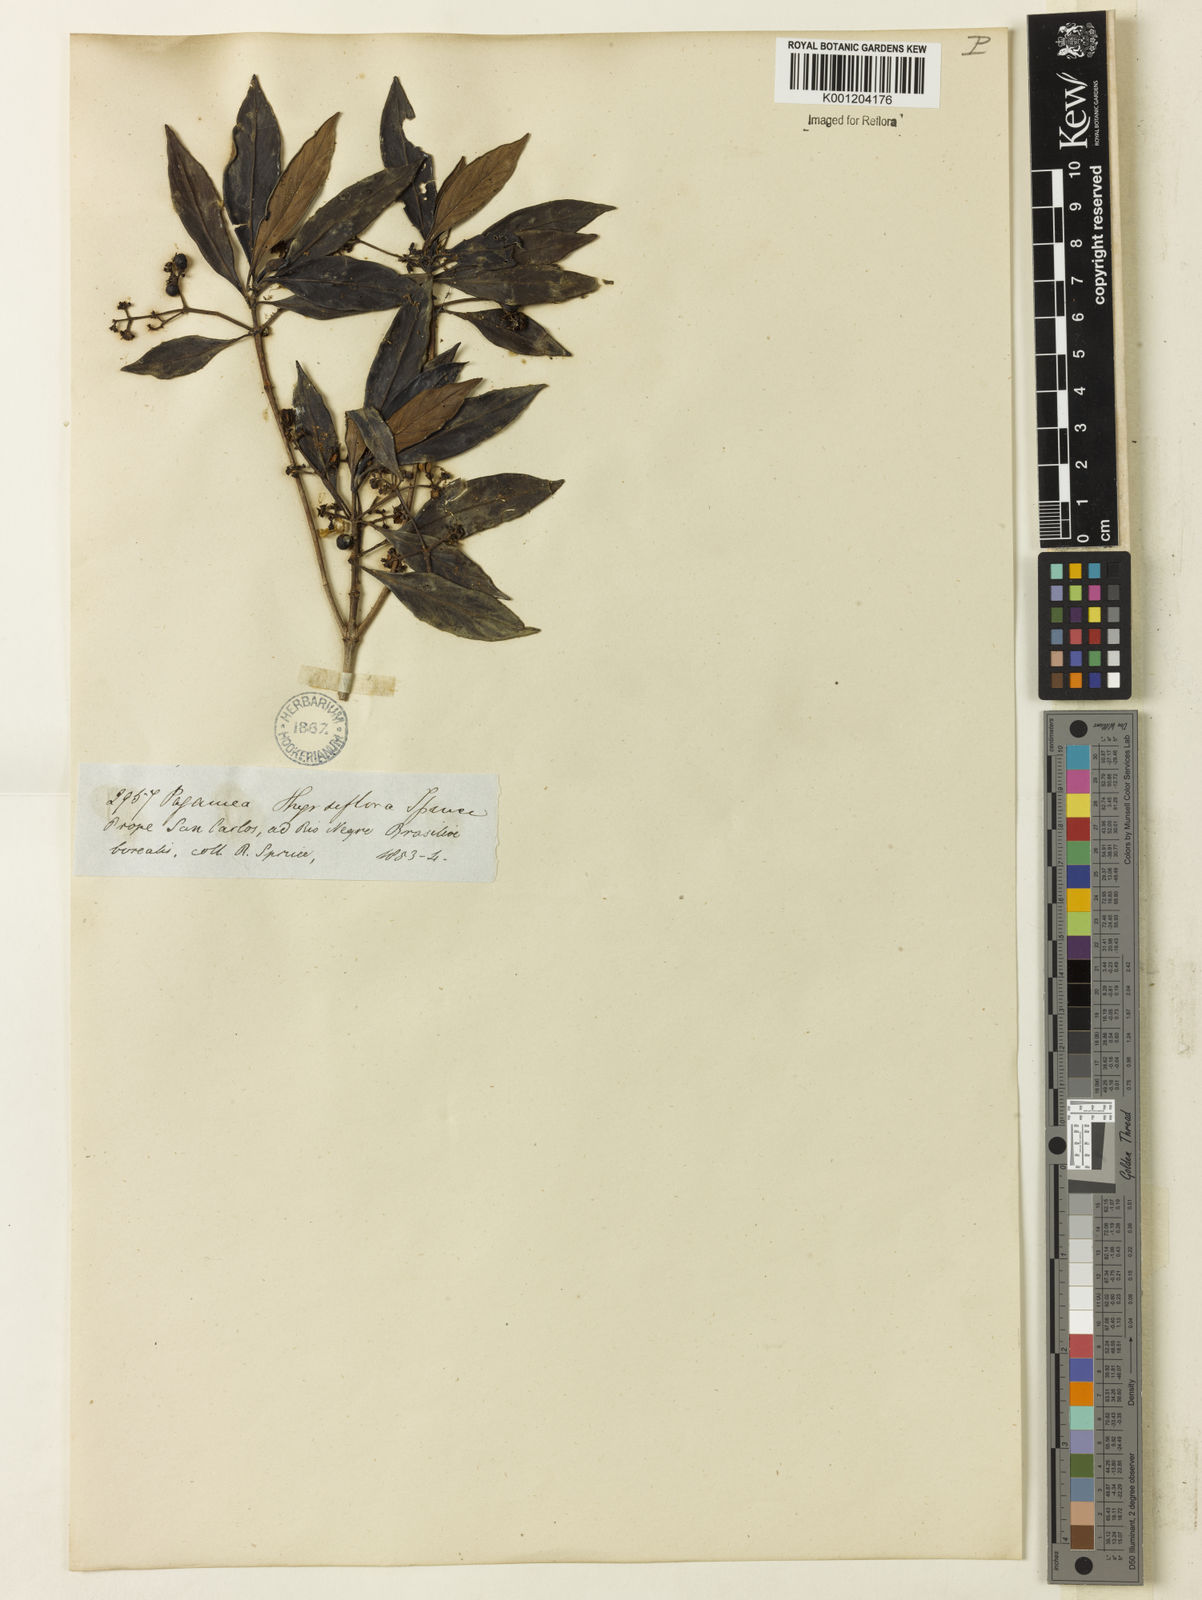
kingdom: Plantae
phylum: Tracheophyta
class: Magnoliopsida
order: Gentianales
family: Rubiaceae
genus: Pagamea
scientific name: Pagamea thyrsiflora
